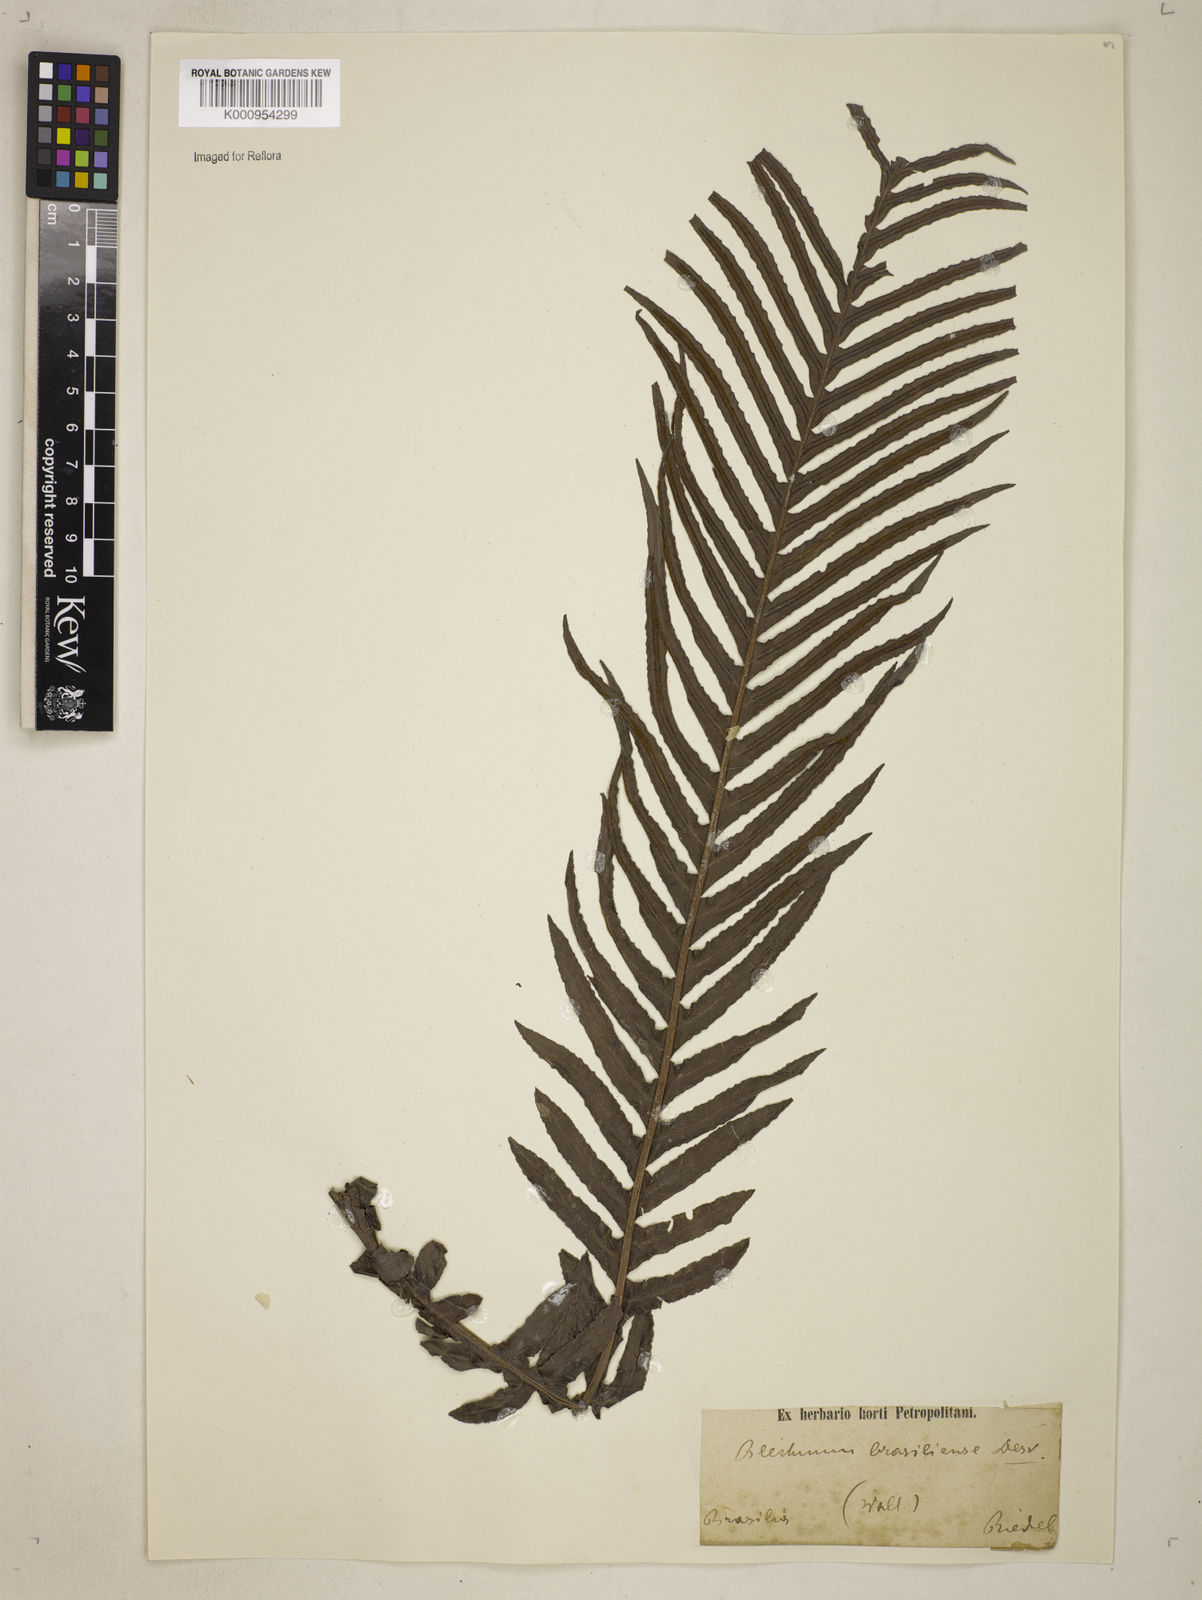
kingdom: Plantae
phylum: Tracheophyta
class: Polypodiopsida
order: Polypodiales
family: Blechnaceae
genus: Neoblechnum
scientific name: Neoblechnum brasiliense
